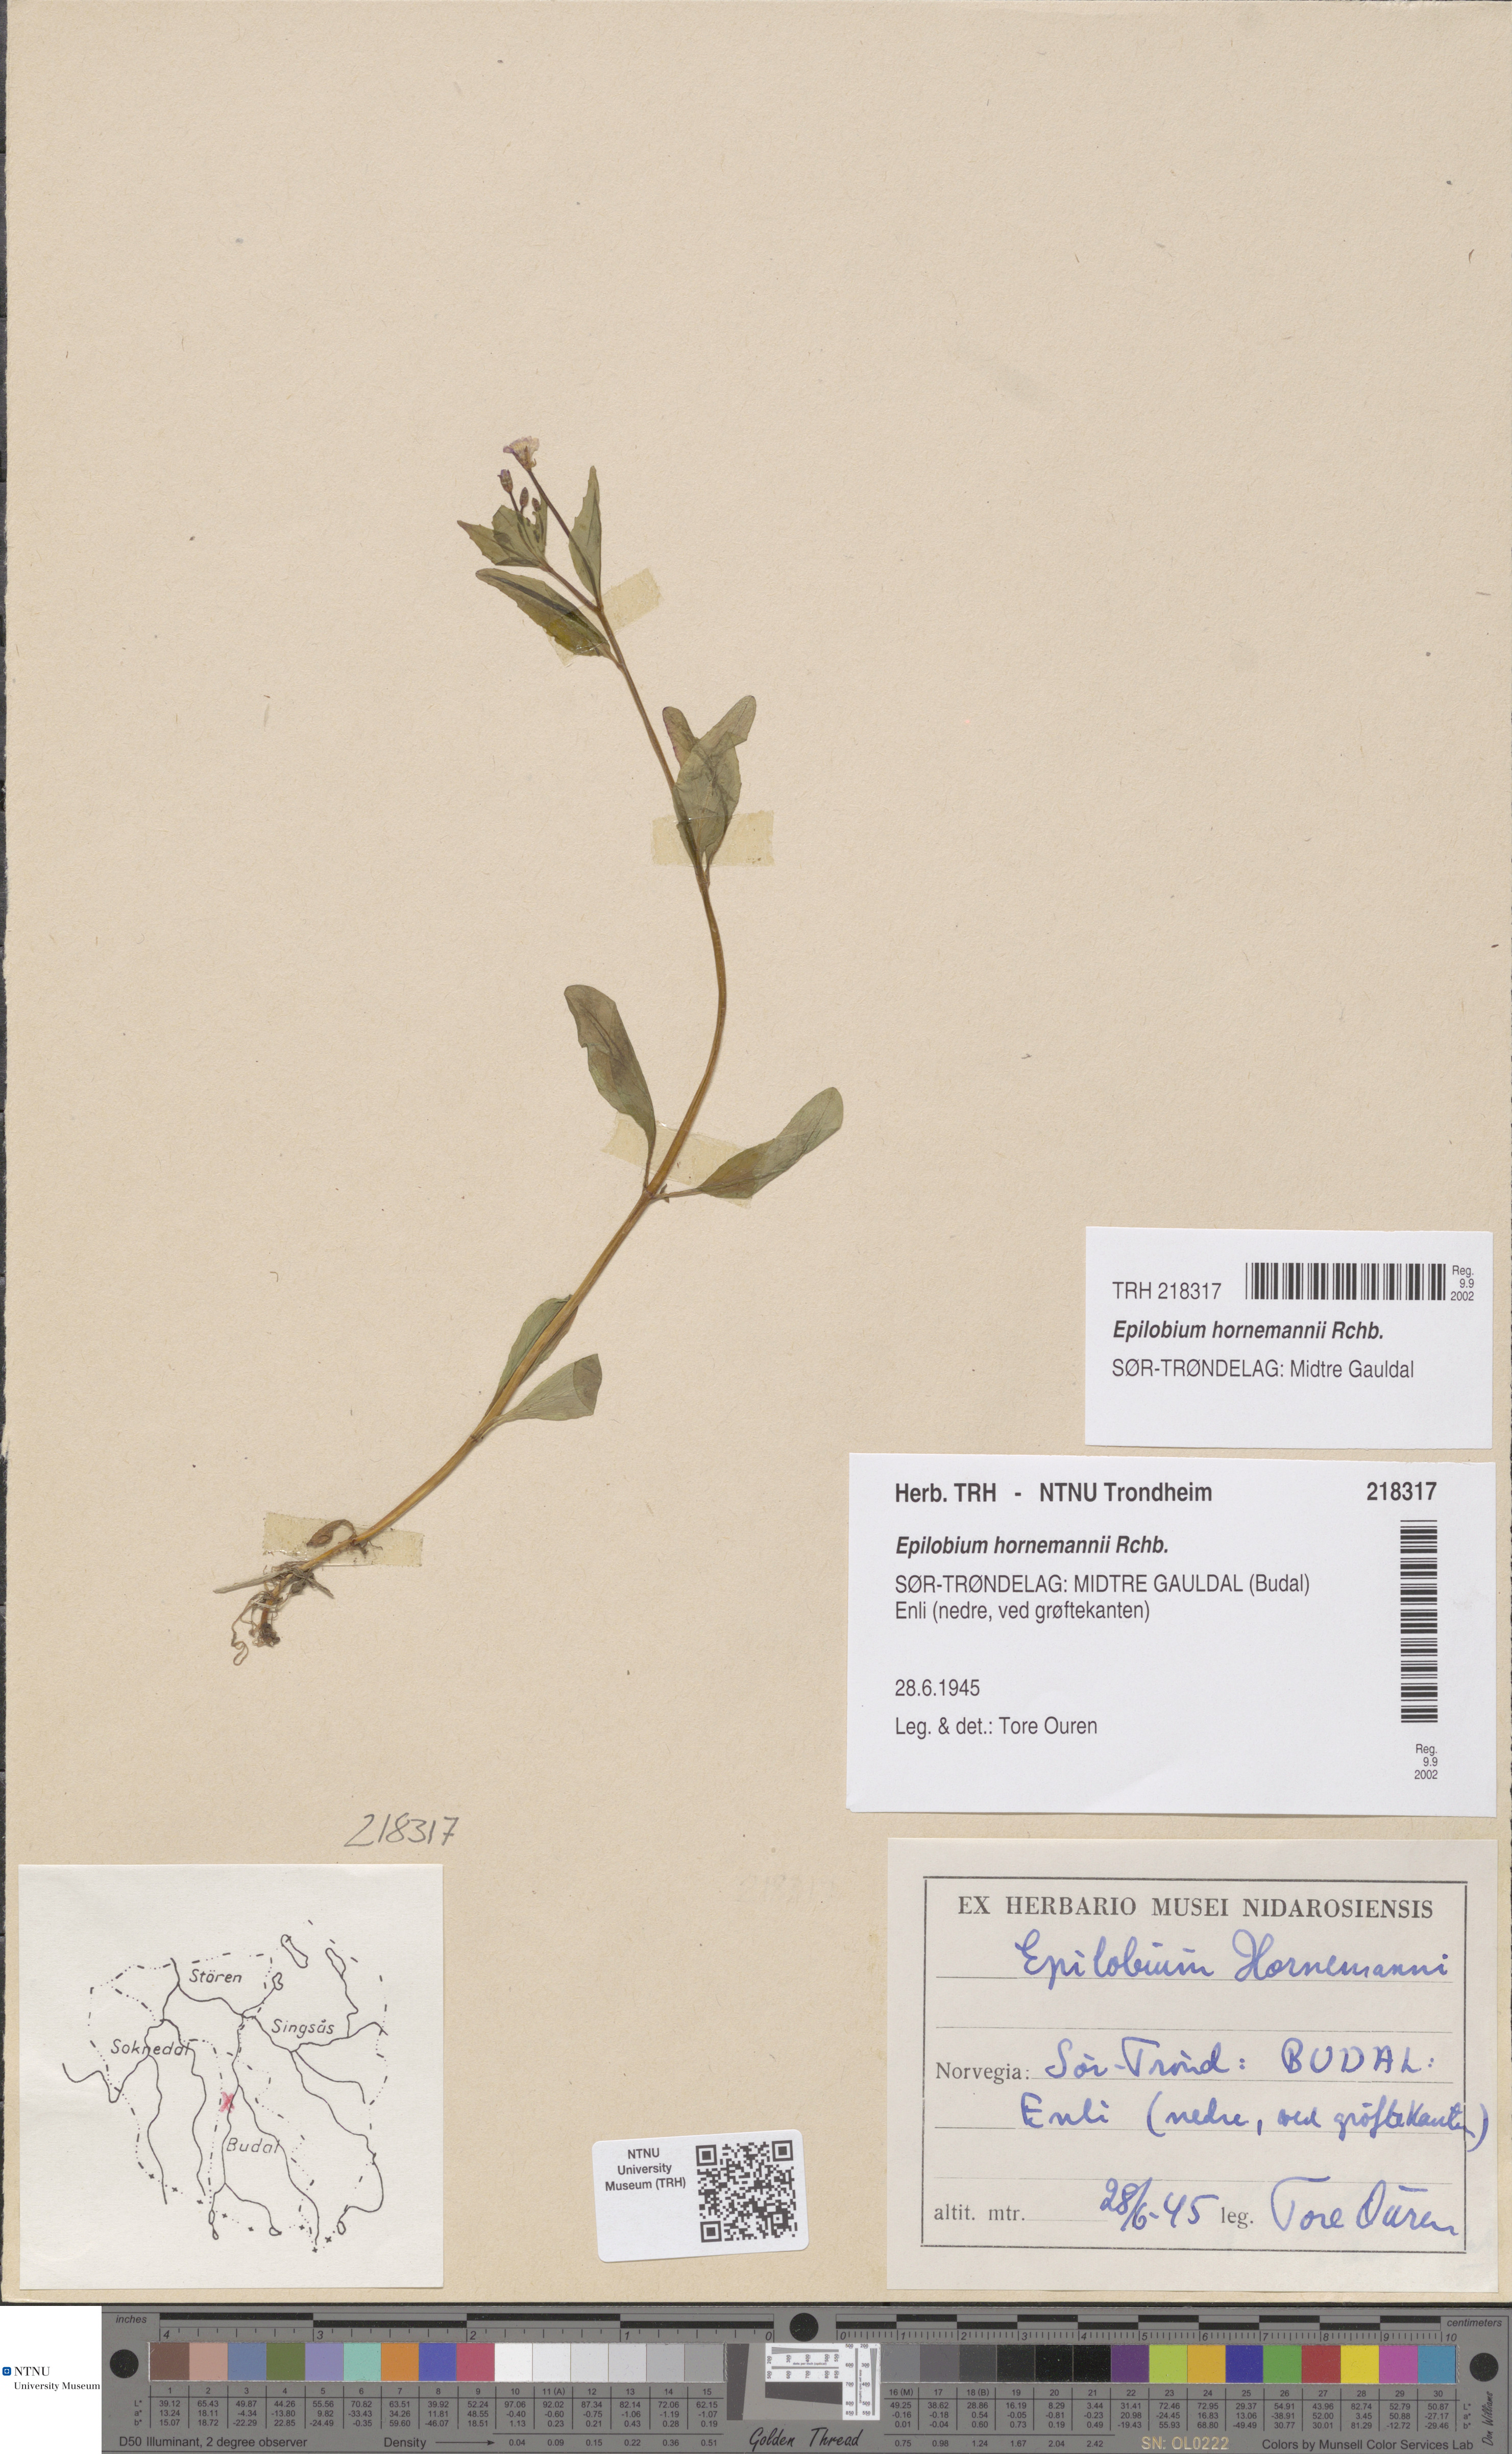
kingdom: Plantae
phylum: Tracheophyta
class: Magnoliopsida
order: Myrtales
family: Onagraceae
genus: Epilobium
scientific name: Epilobium hornemannii
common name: Hornemann's willowherb
